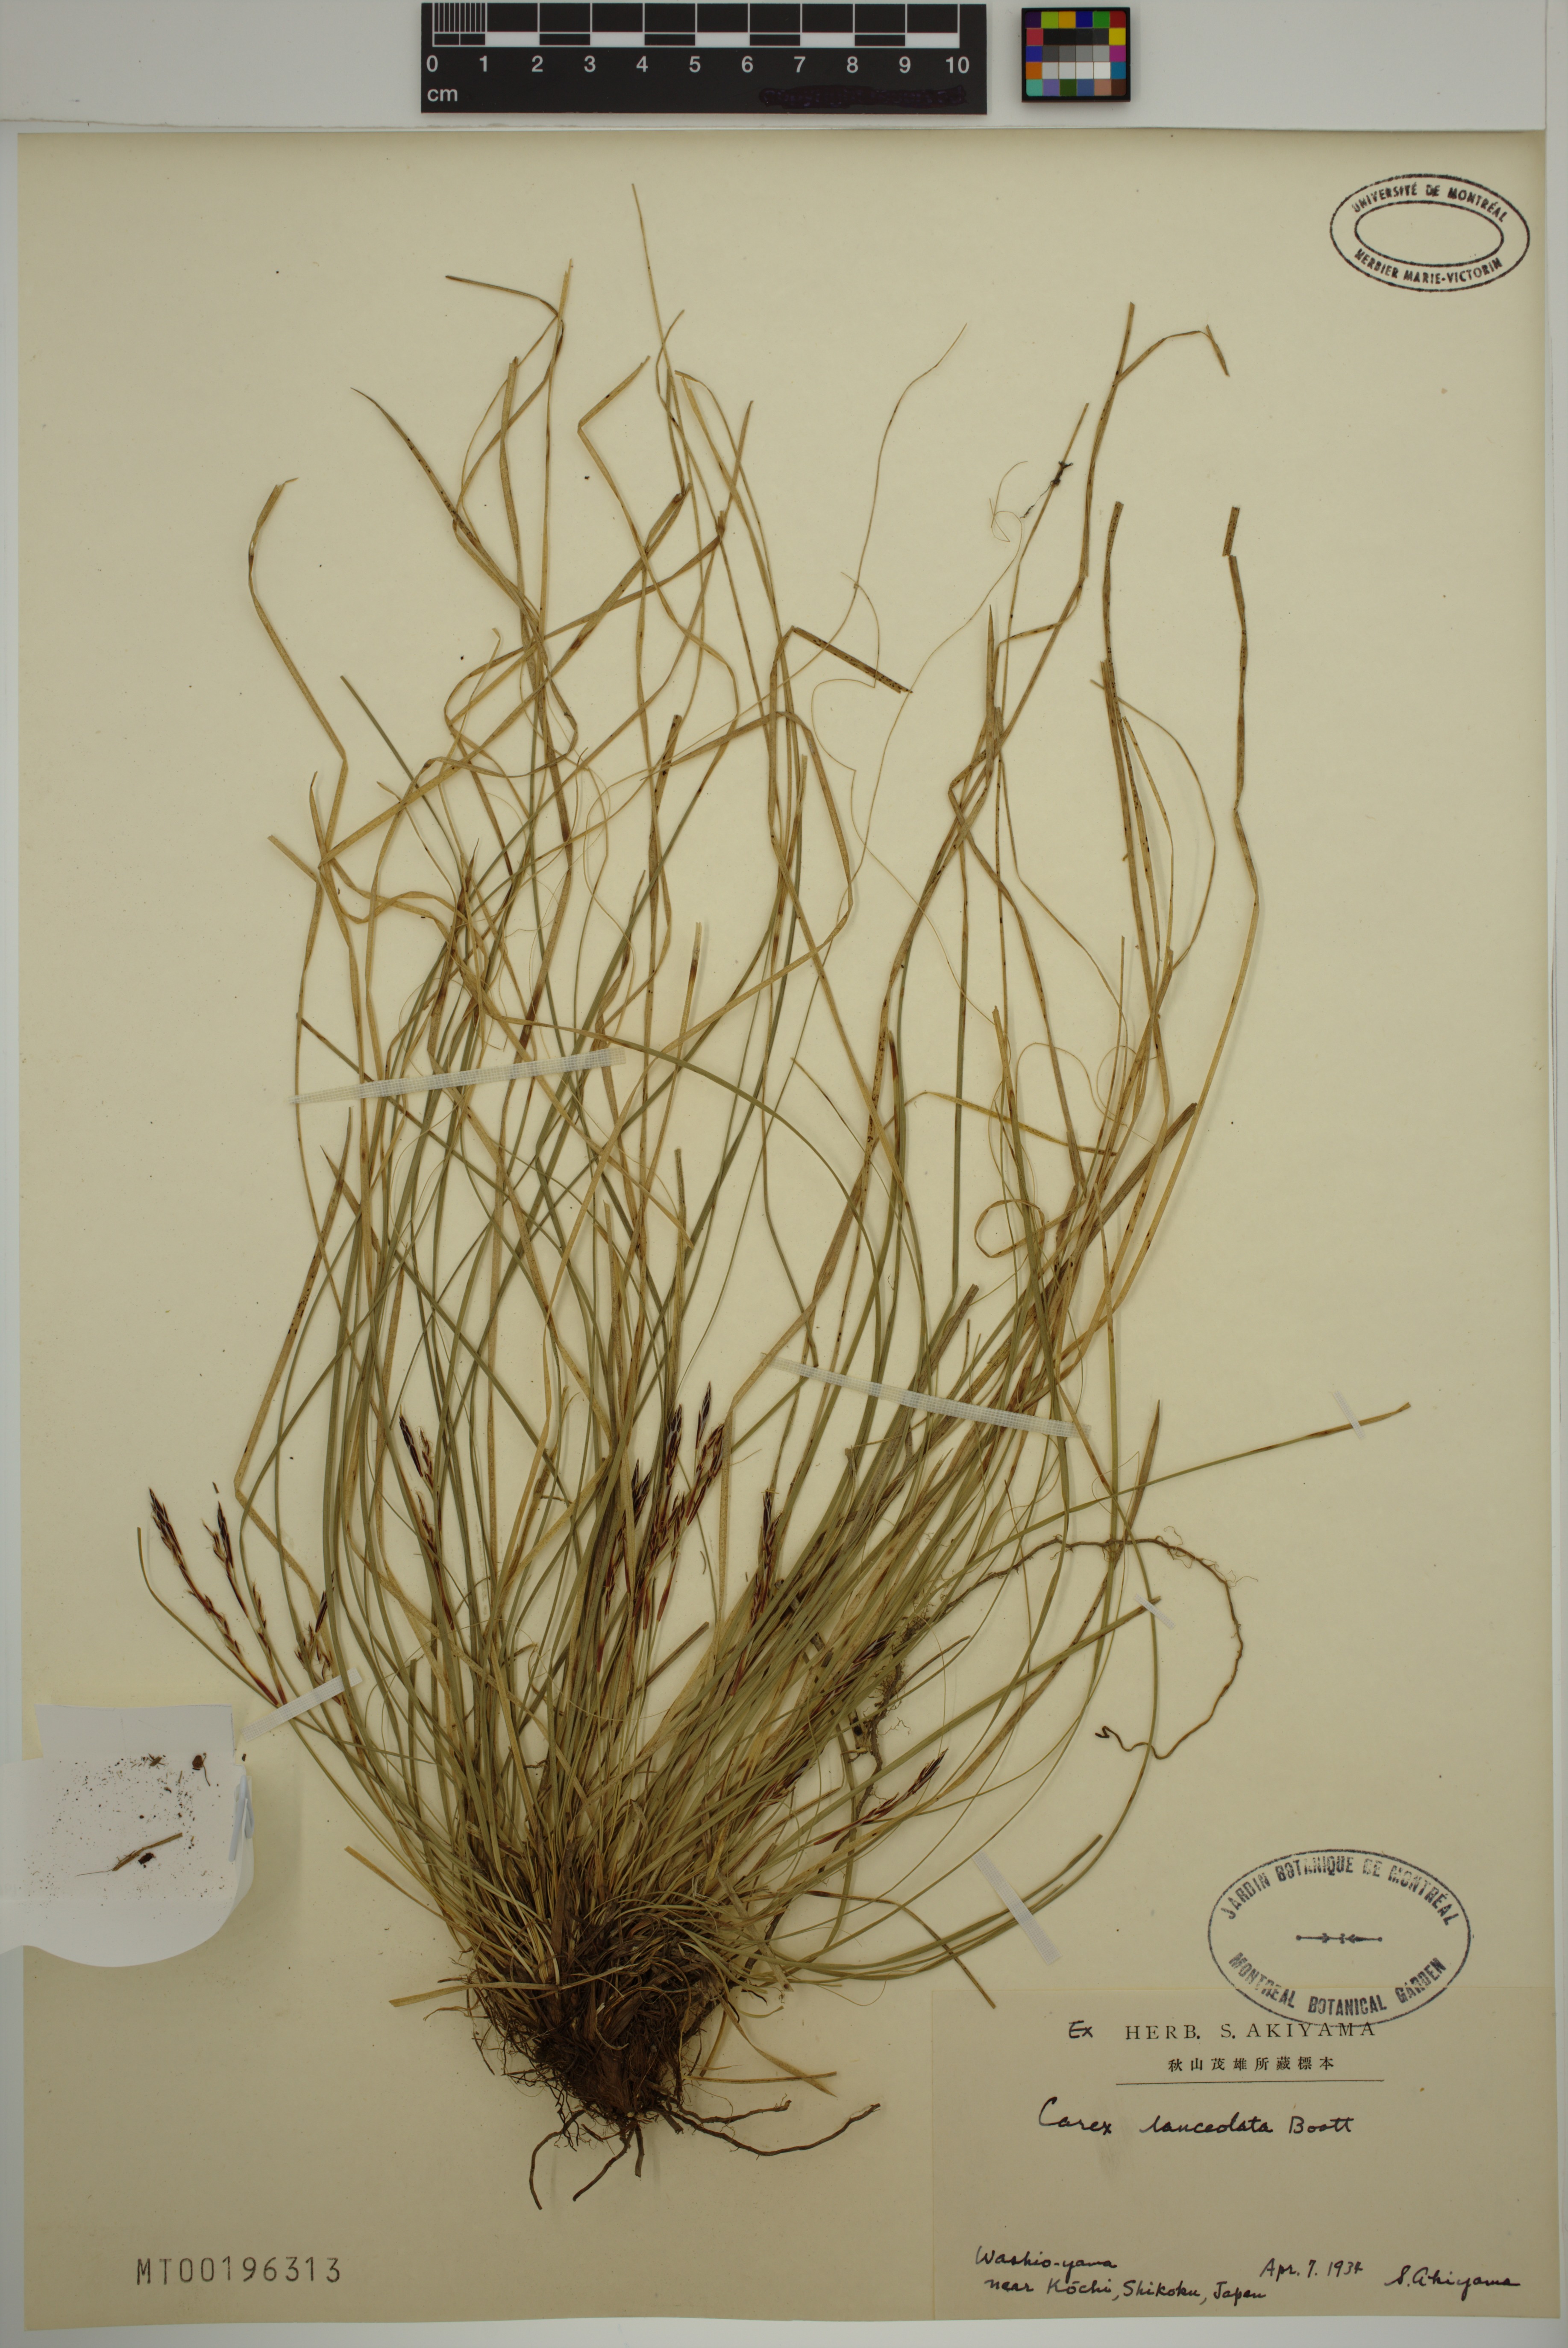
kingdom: Plantae
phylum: Tracheophyta
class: Liliopsida
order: Poales
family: Cyperaceae
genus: Carex
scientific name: Carex lanceolata
